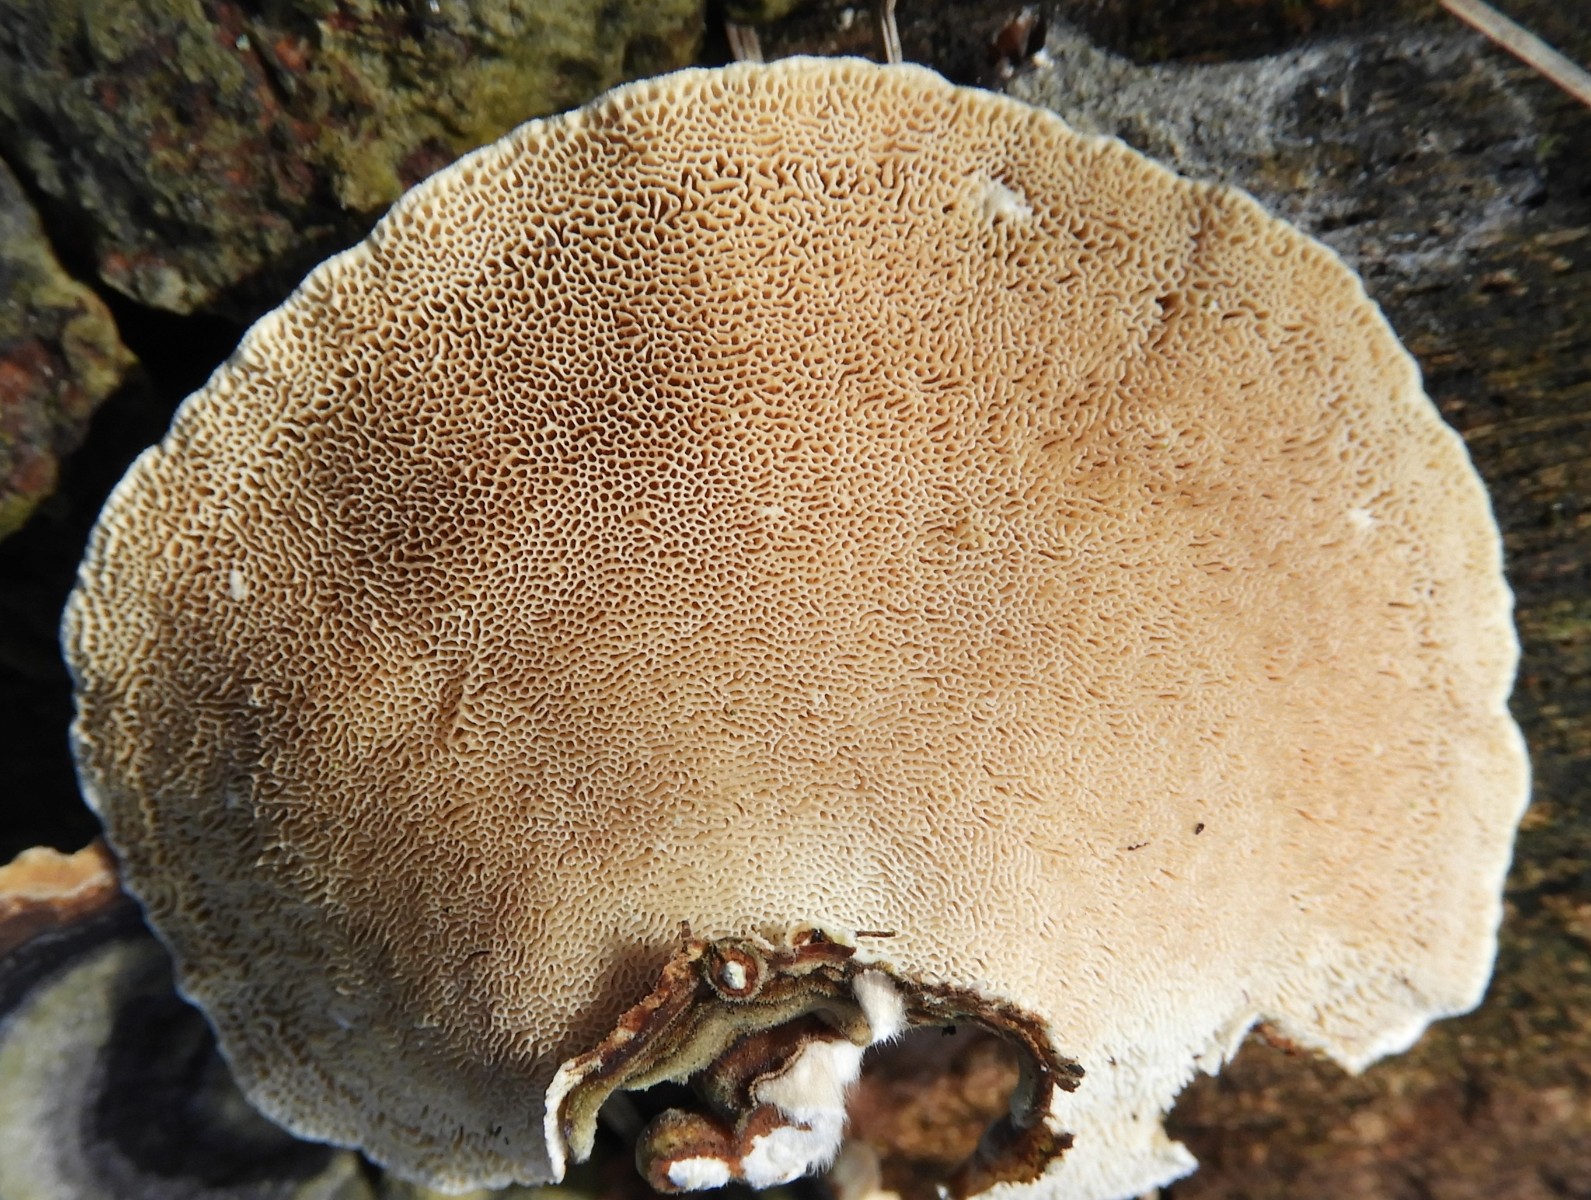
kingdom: Fungi
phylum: Basidiomycota
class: Agaricomycetes
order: Polyporales
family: Polyporaceae
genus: Trametes
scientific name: Trametes versicolor
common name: broget læderporesvamp
